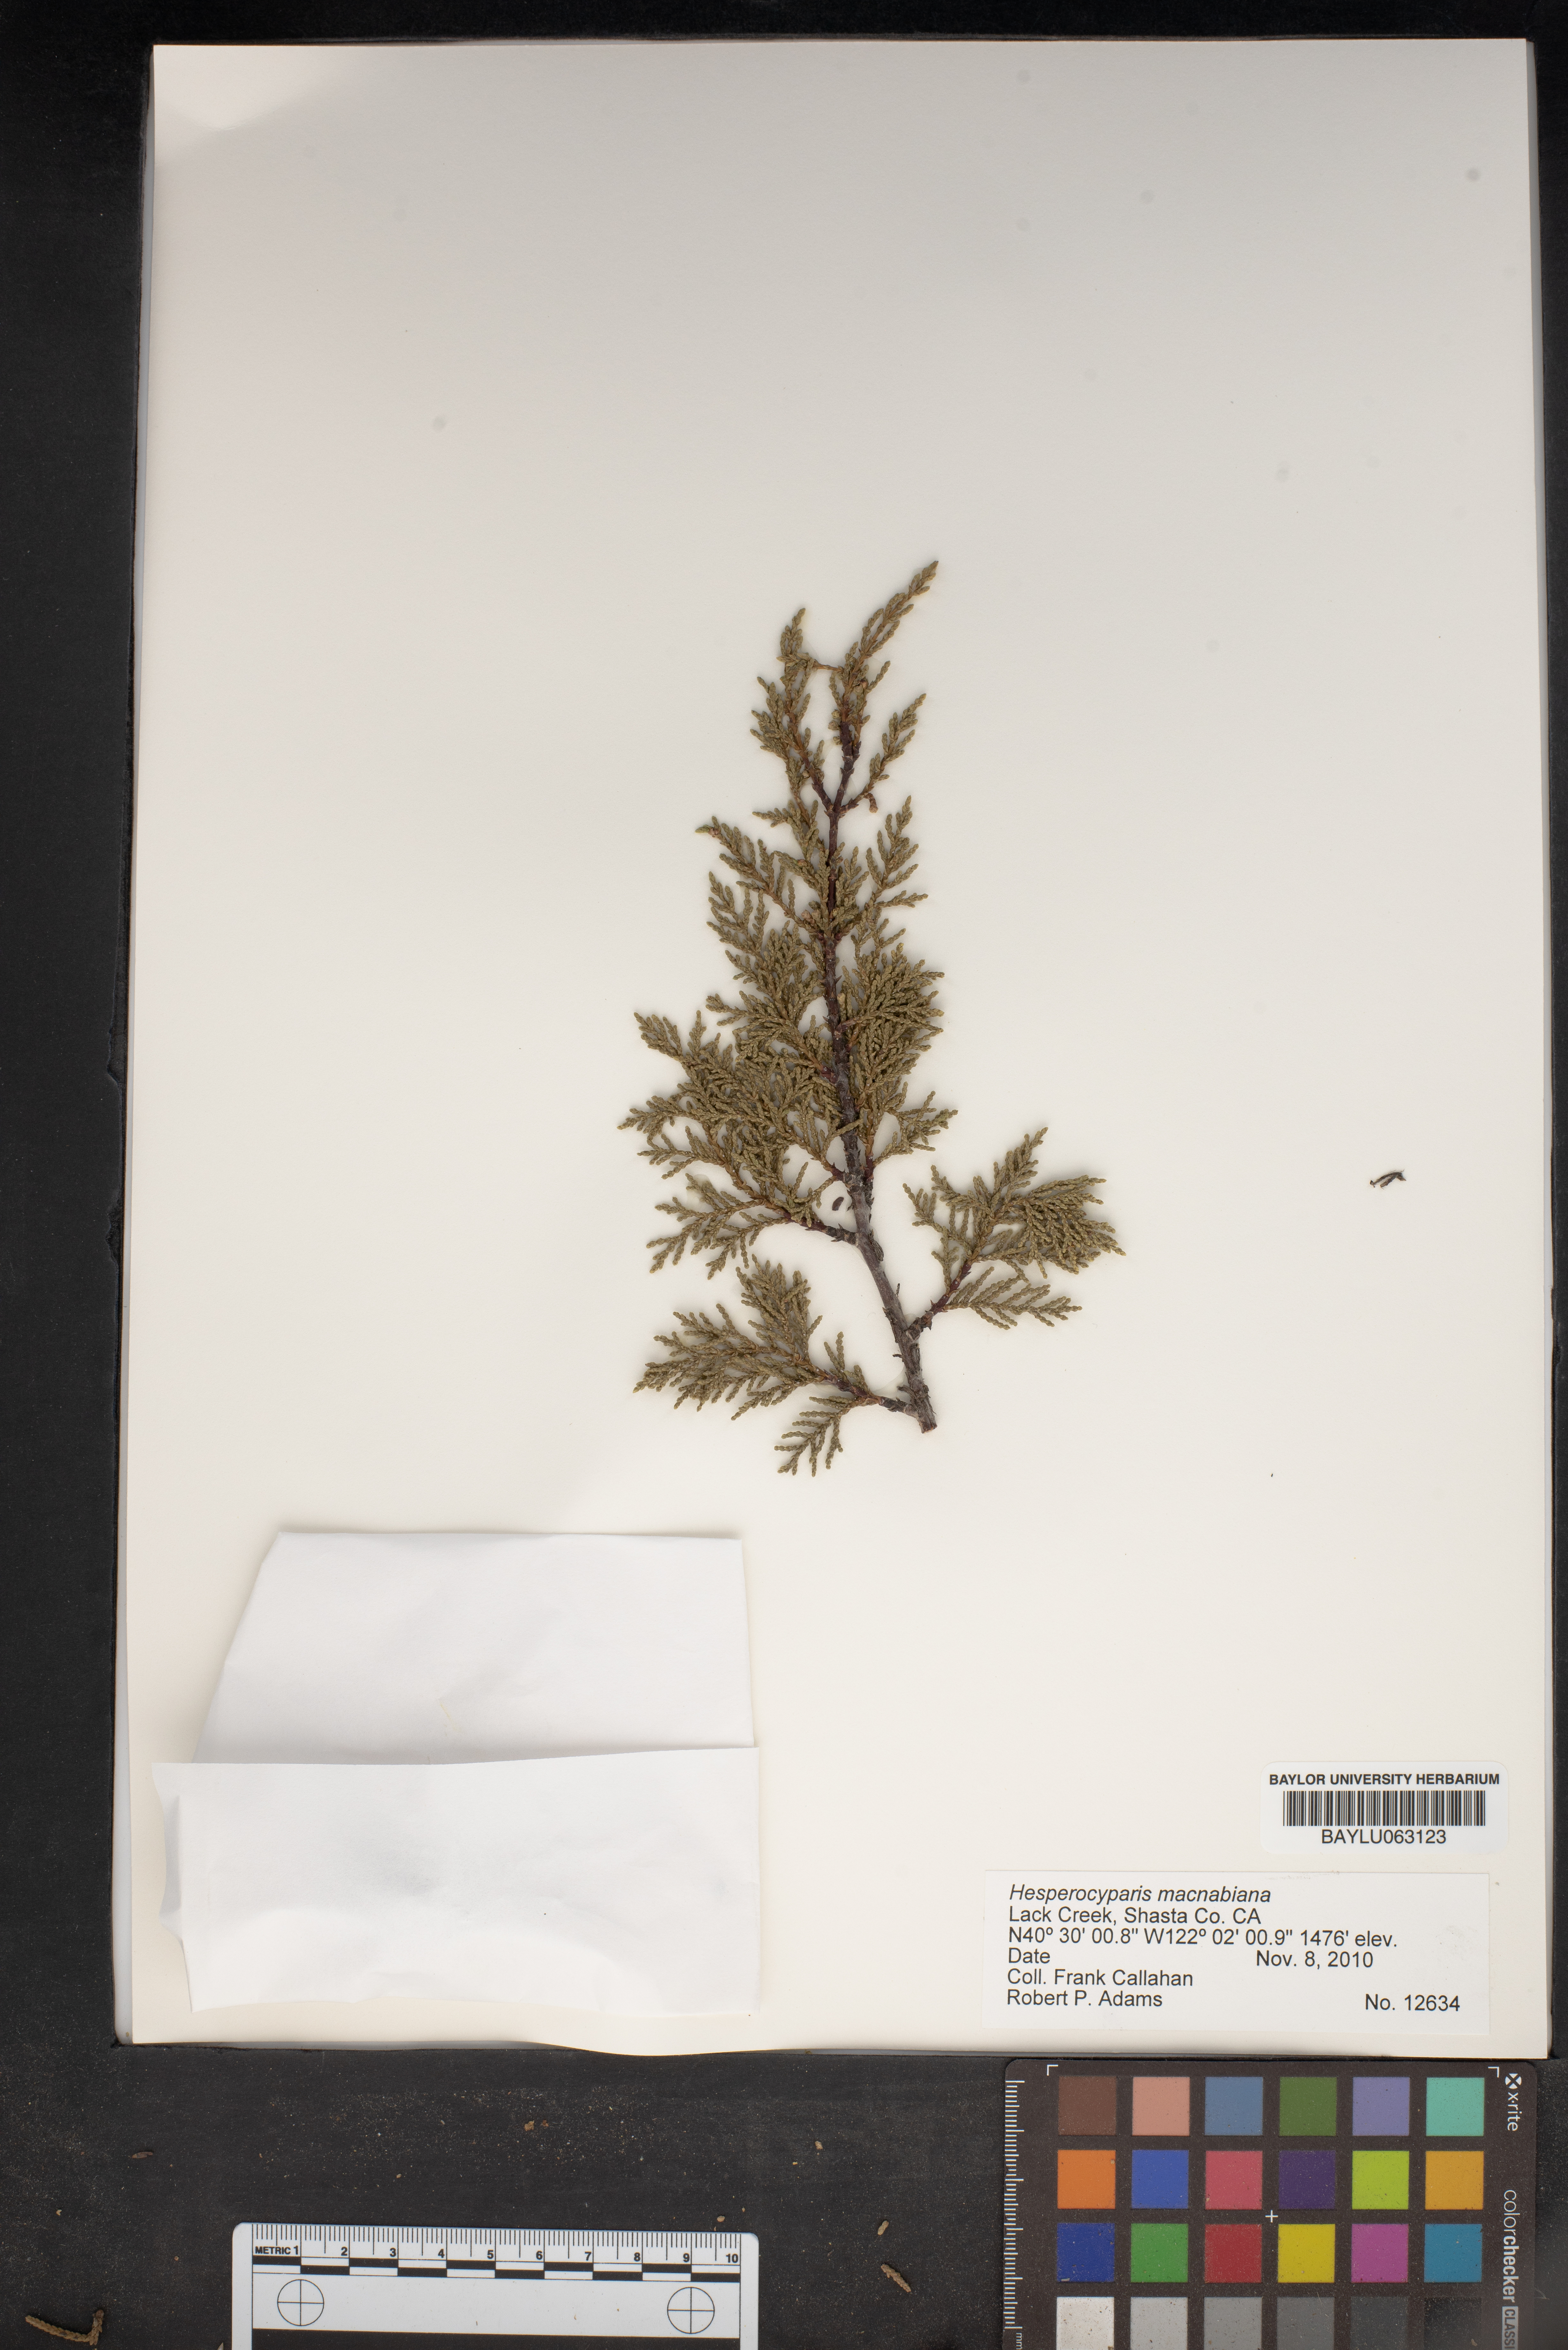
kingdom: Plantae
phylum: Tracheophyta
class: Pinopsida
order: Pinales
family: Cupressaceae
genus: Cupressus
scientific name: Cupressus macnabiana bis
